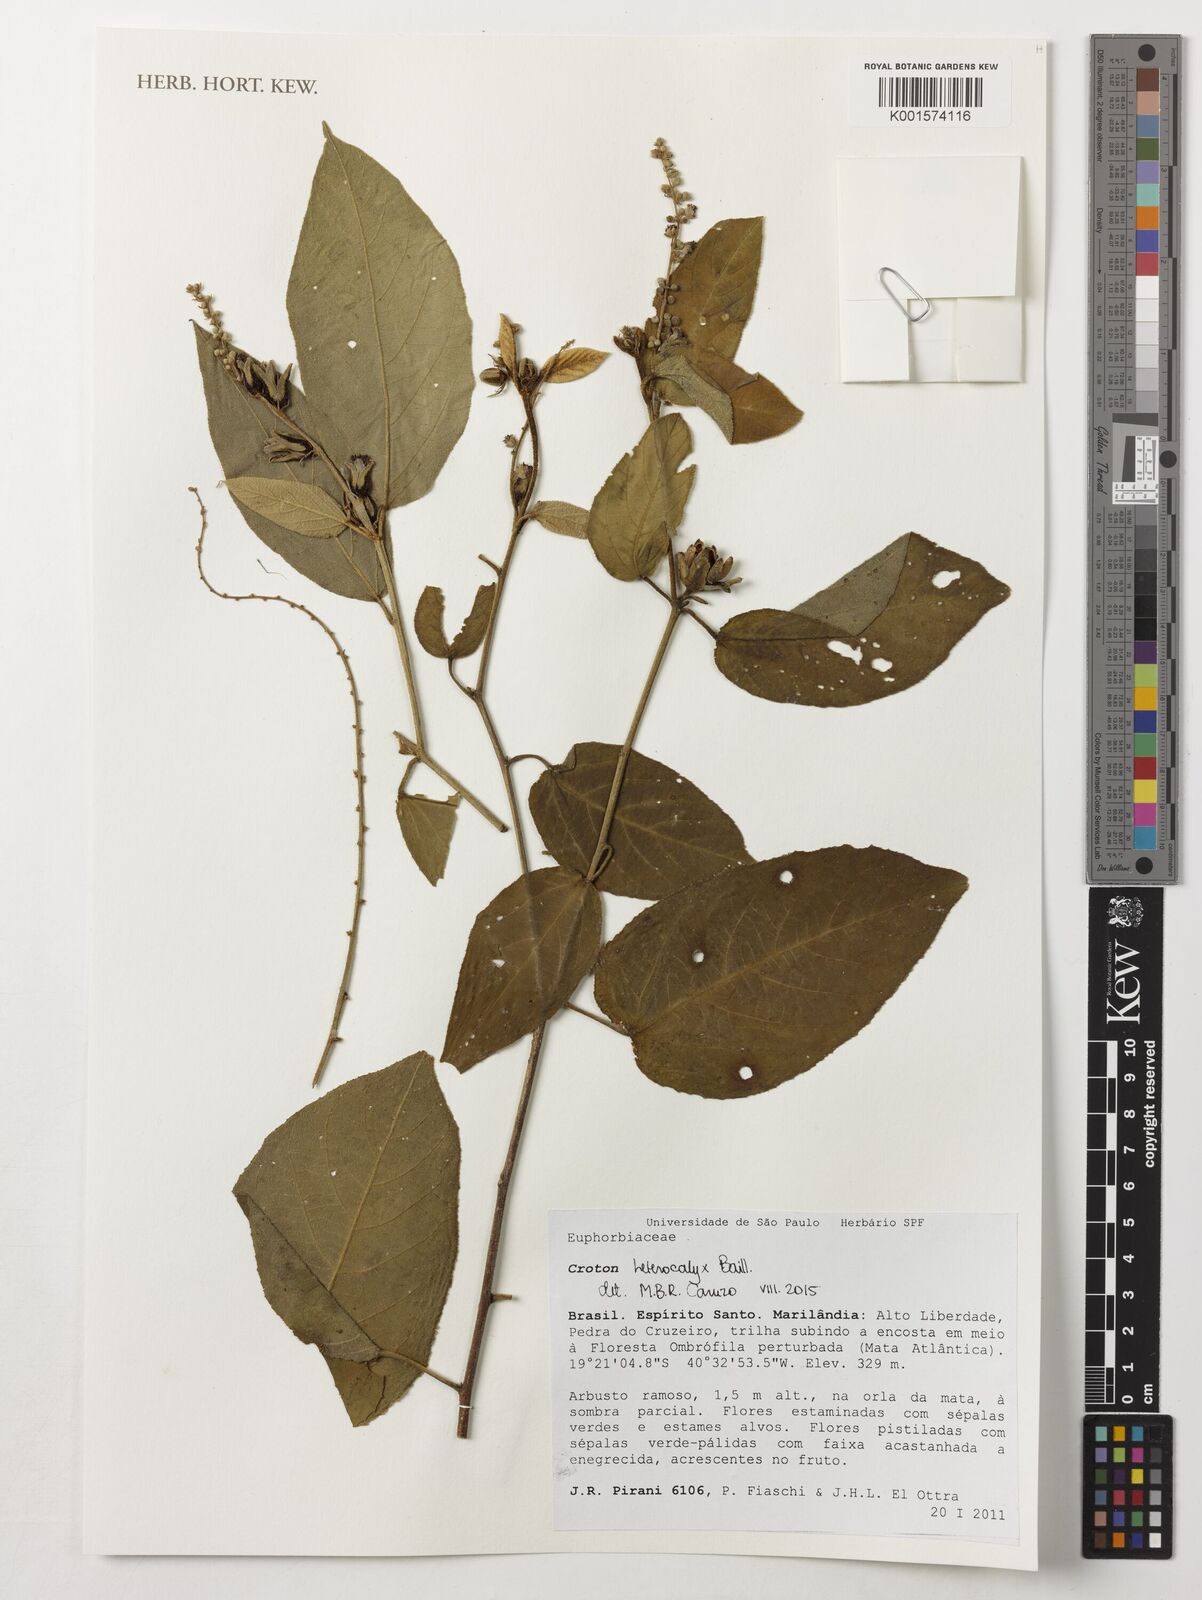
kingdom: Plantae
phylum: Tracheophyta
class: Magnoliopsida
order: Malpighiales
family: Euphorbiaceae
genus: Croton
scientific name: Croton heterocalyx
